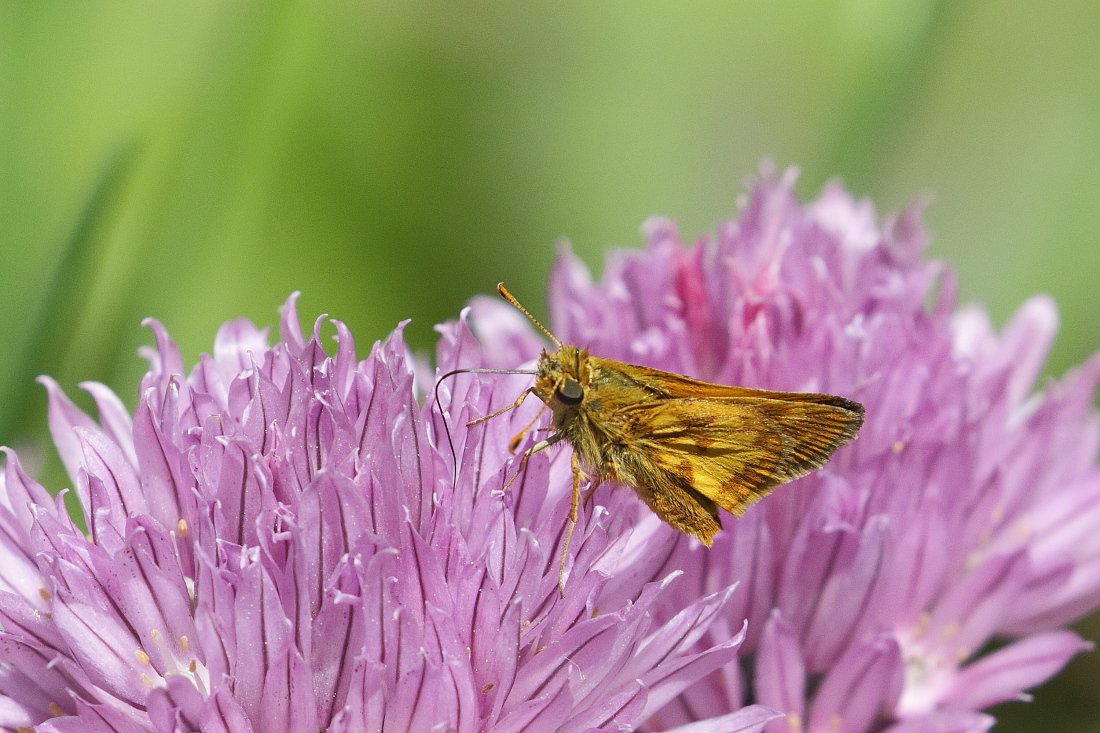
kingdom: Animalia
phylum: Arthropoda
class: Insecta
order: Lepidoptera
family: Hesperiidae
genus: Polites
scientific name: Polites coras
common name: Peck's Skipper
